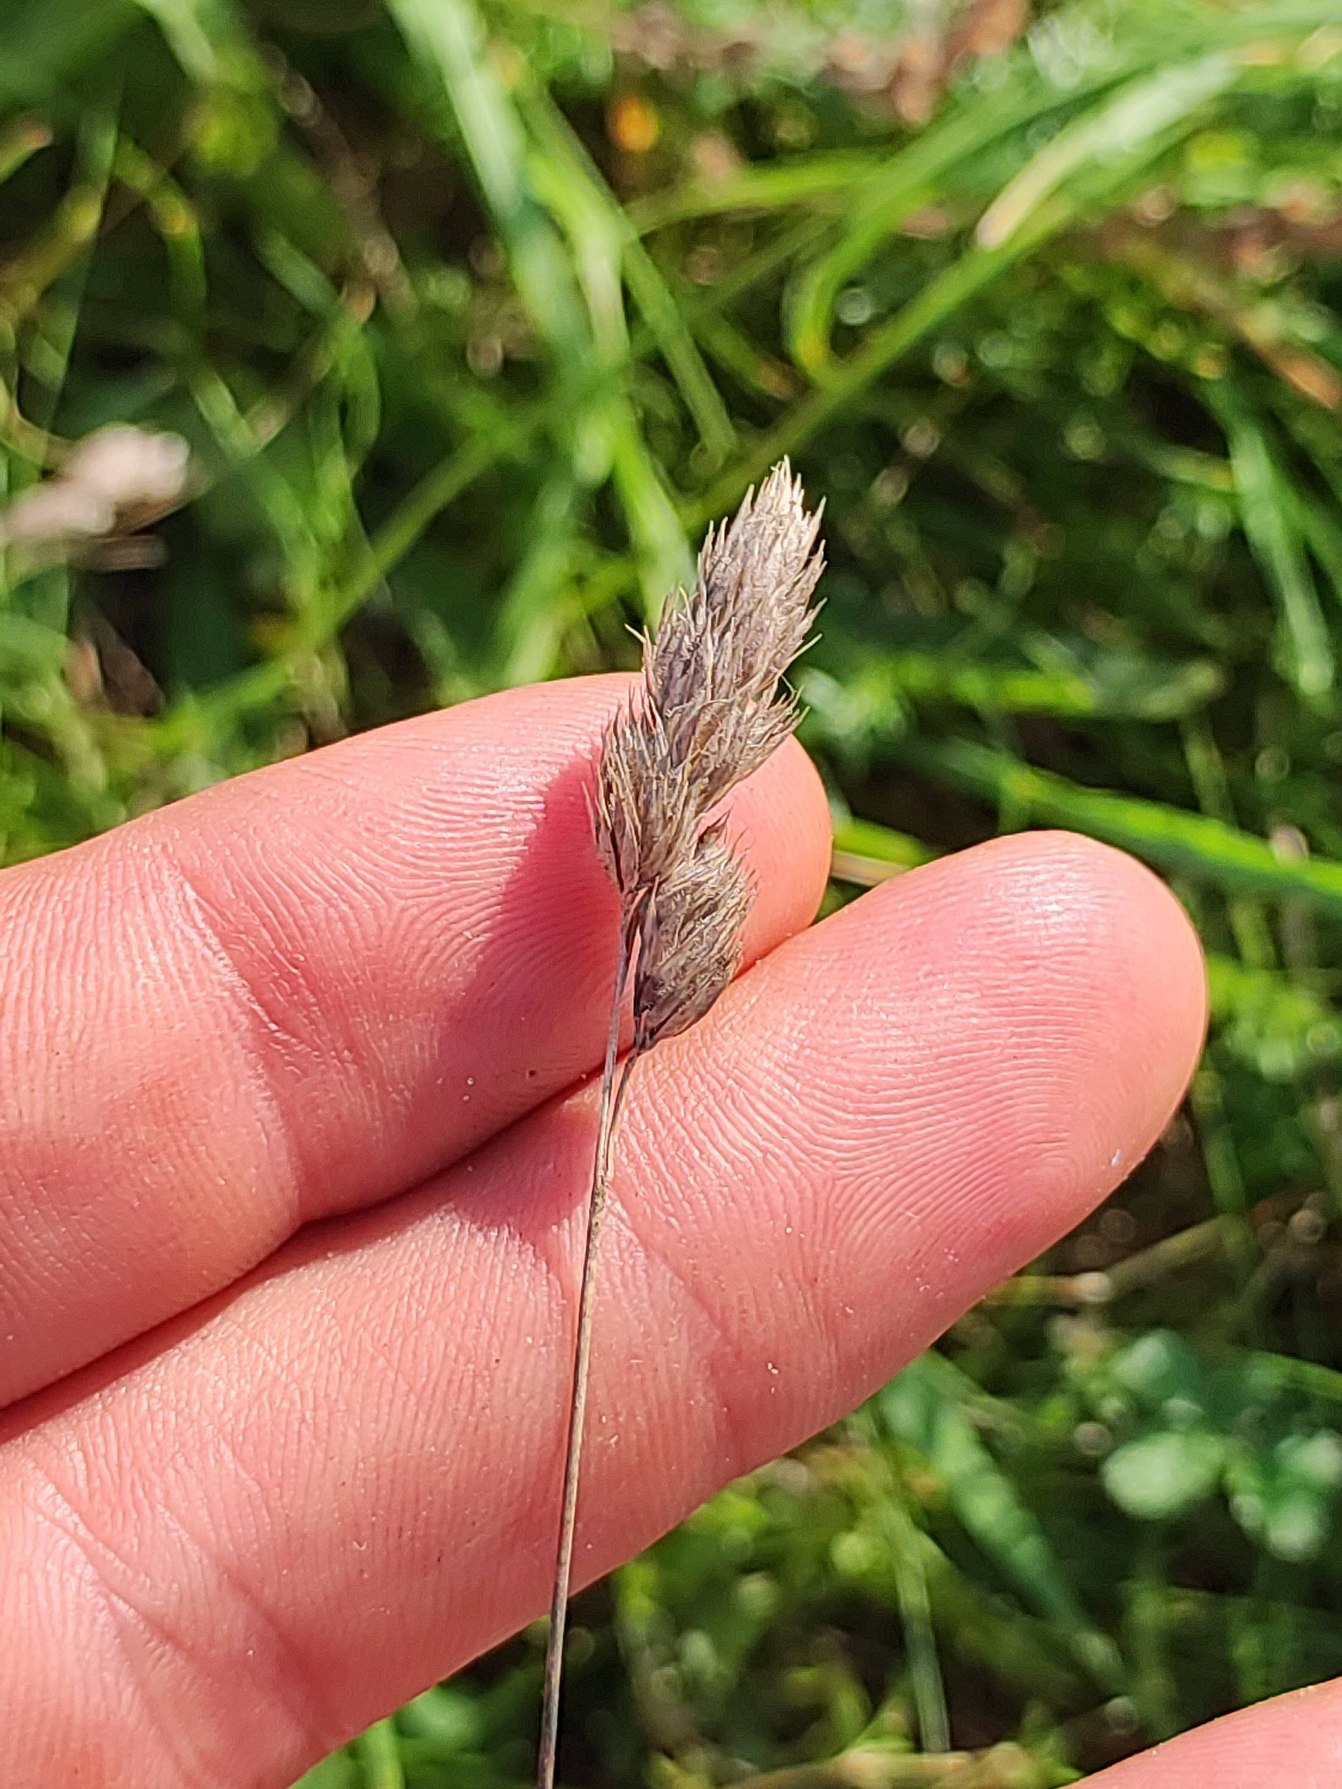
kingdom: Plantae
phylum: Tracheophyta
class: Liliopsida
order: Poales
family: Poaceae
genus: Dactylis
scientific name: Dactylis glomerata
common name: Almindelig hundegræs
